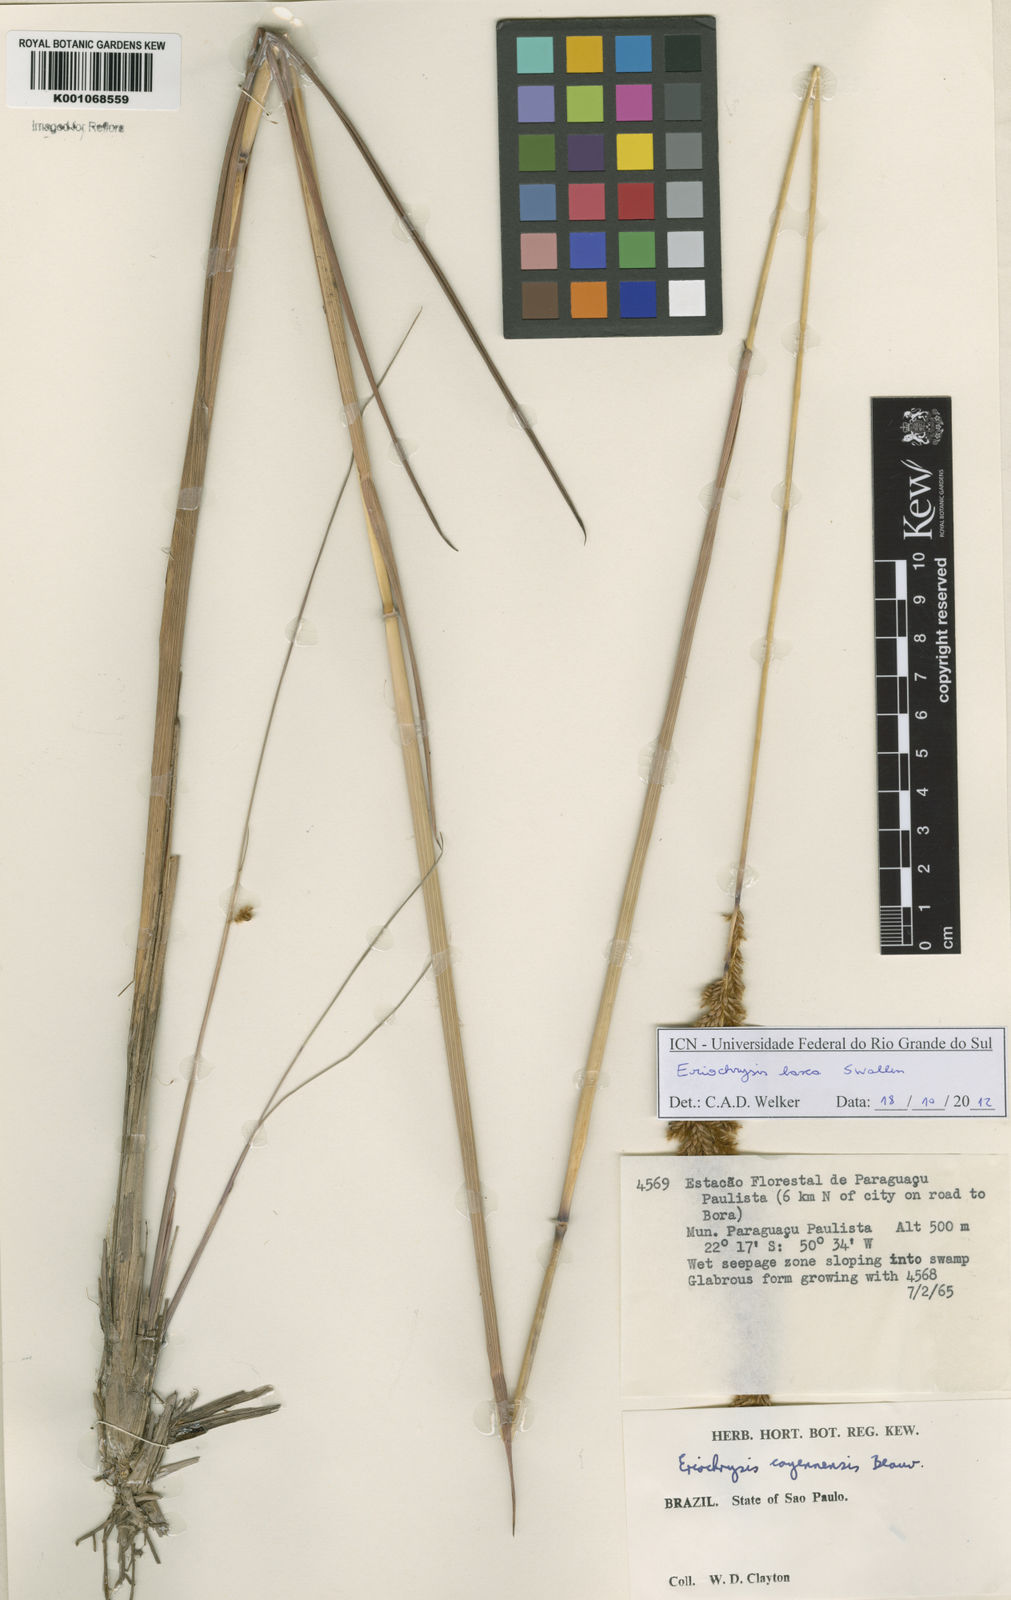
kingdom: Plantae
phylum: Tracheophyta
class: Liliopsida
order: Poales
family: Poaceae
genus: Eriochrysis
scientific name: Eriochrysis laxa
